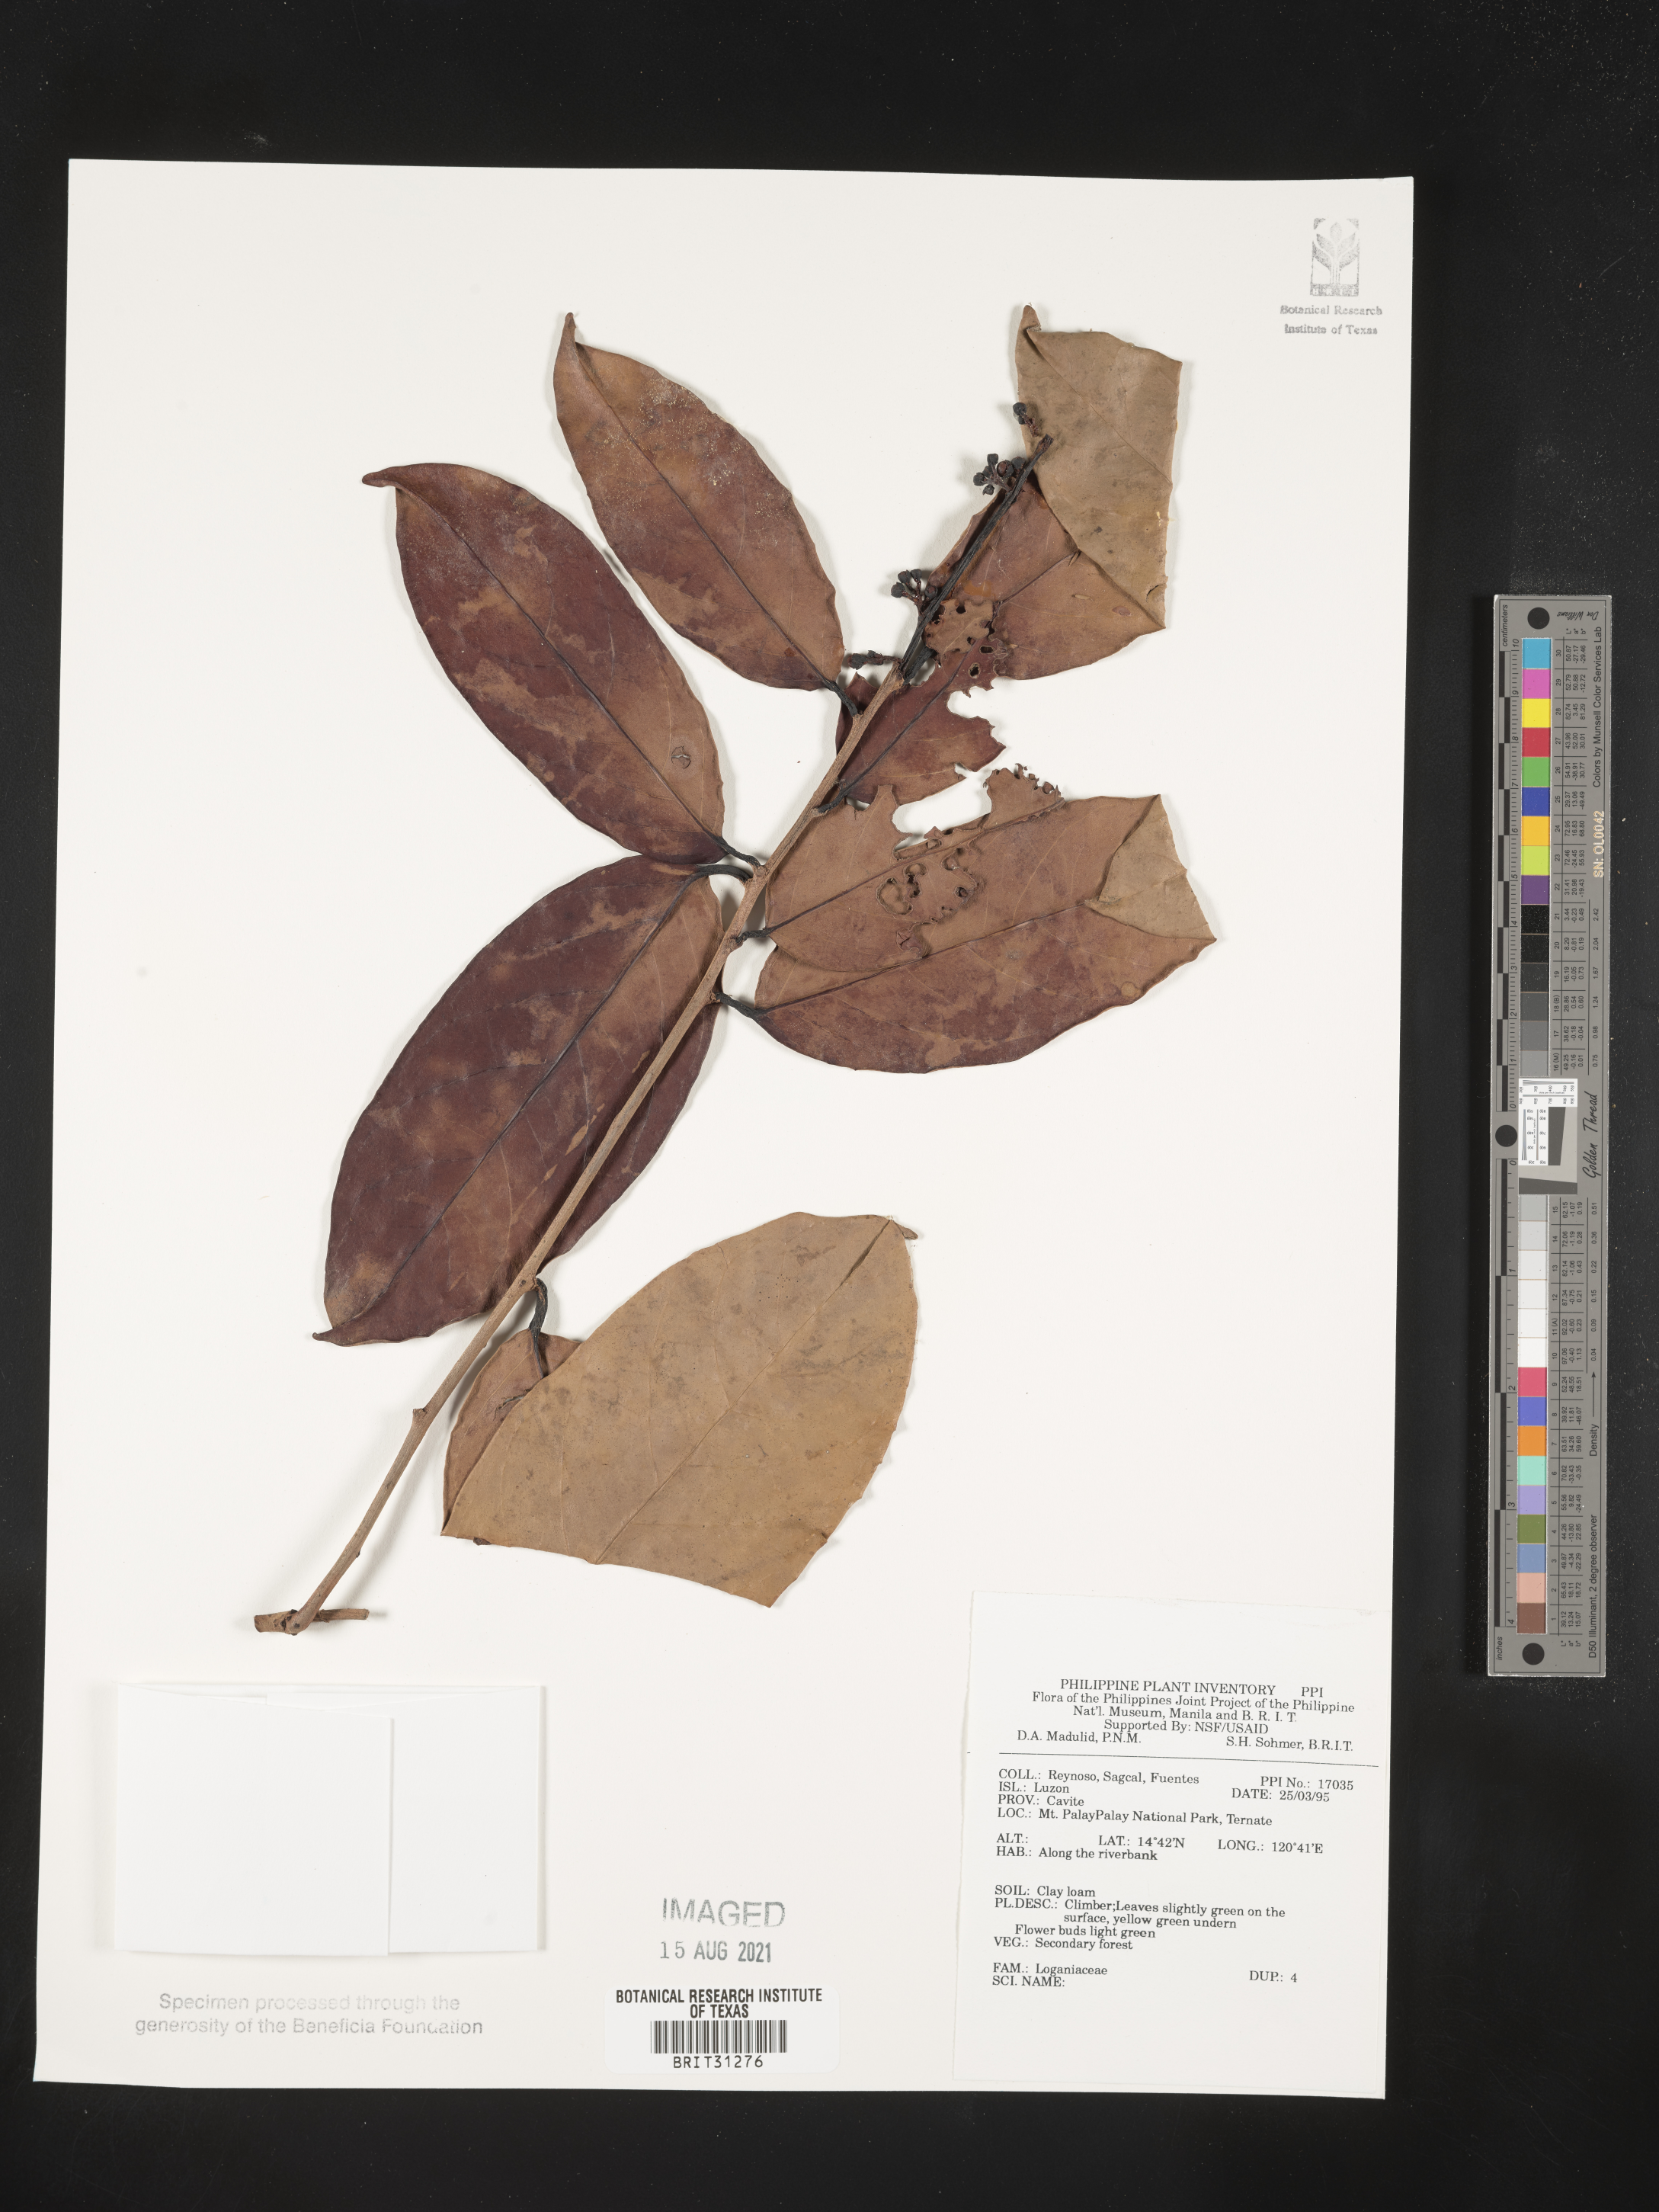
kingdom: Plantae
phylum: Tracheophyta
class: Magnoliopsida
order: Gentianales
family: Loganiaceae
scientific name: Loganiaceae
